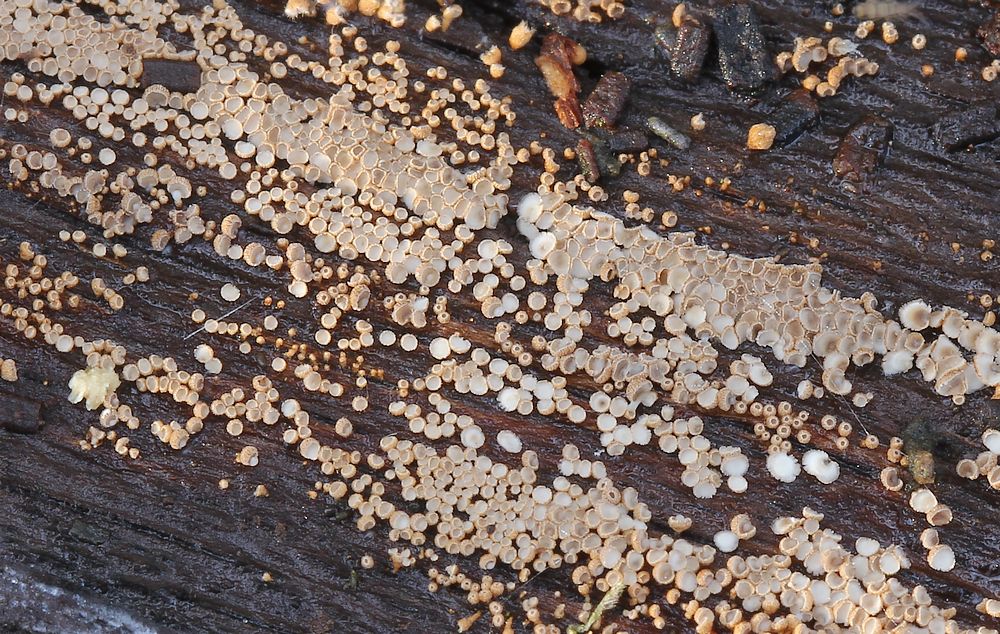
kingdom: Fungi
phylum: Basidiomycota
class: Agaricomycetes
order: Agaricales
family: Niaceae
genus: Merismodes
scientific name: Merismodes anomala
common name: almindelig læderskål
